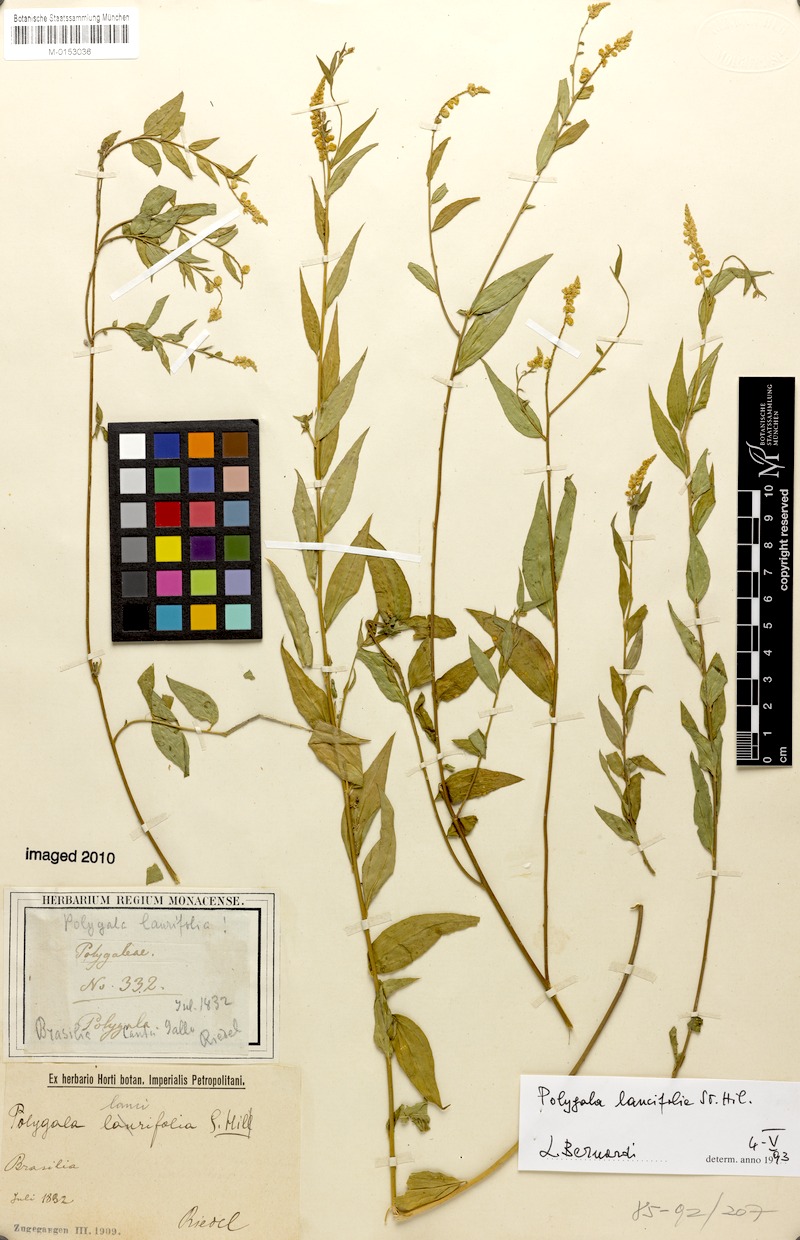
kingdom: Plantae
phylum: Tracheophyta
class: Magnoliopsida
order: Fabales
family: Polygalaceae
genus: Polygala
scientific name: Polygala lancifolia
